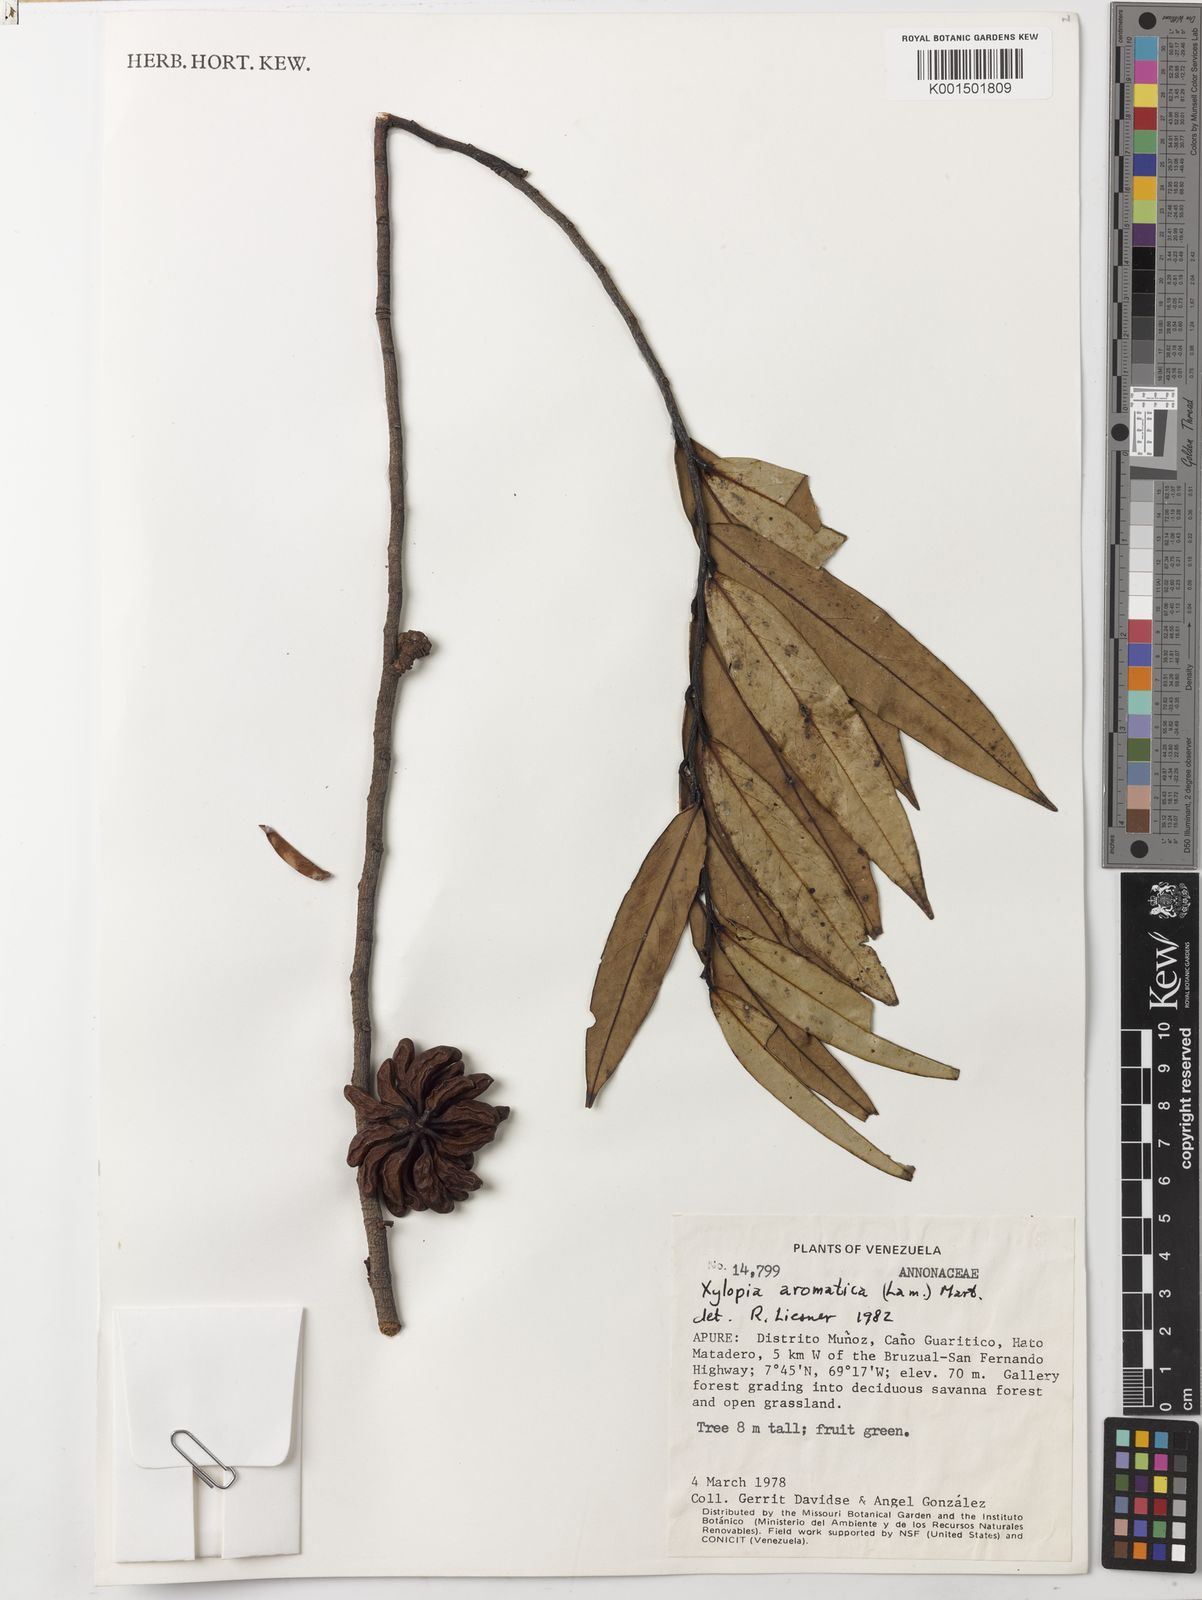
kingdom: Plantae
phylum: Tracheophyta
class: Magnoliopsida
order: Magnoliales
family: Annonaceae
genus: Xylopia
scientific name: Xylopia aromatica
